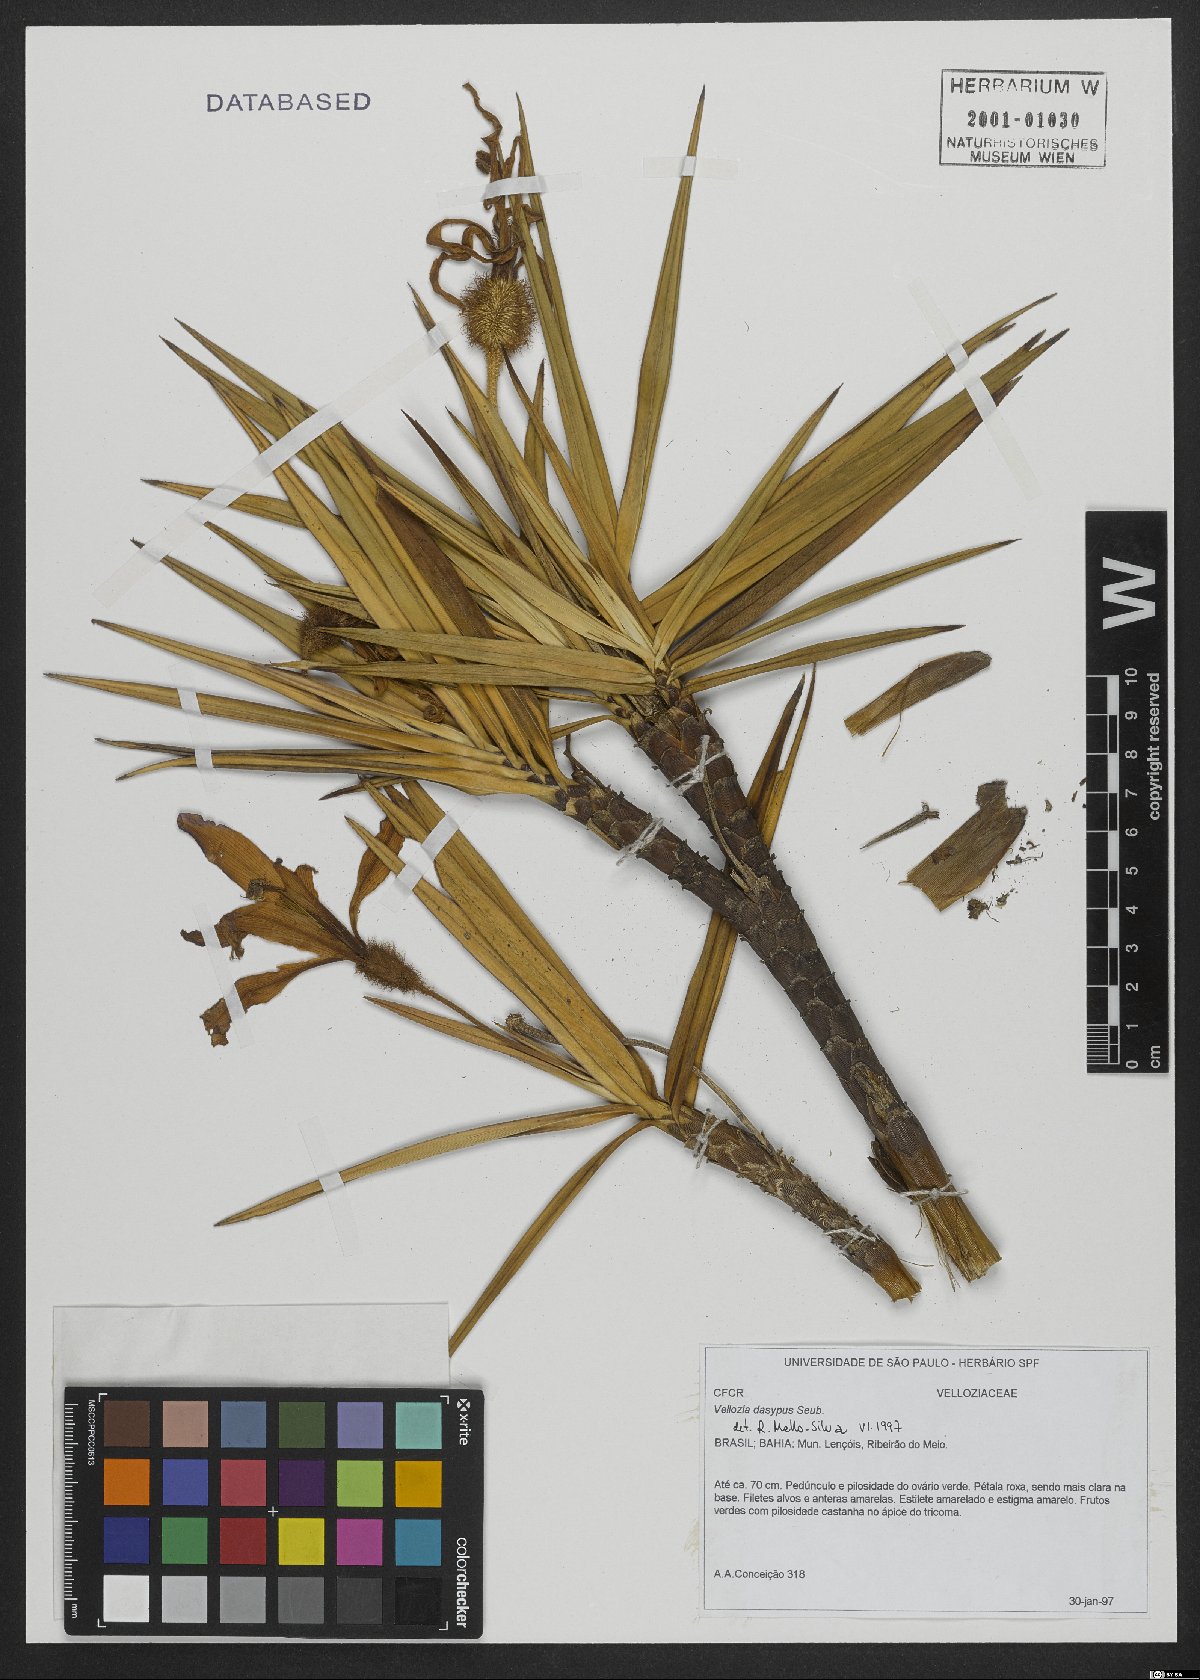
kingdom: Plantae
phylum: Tracheophyta
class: Liliopsida
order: Pandanales
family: Velloziaceae
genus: Vellozia
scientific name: Vellozia dasypus
